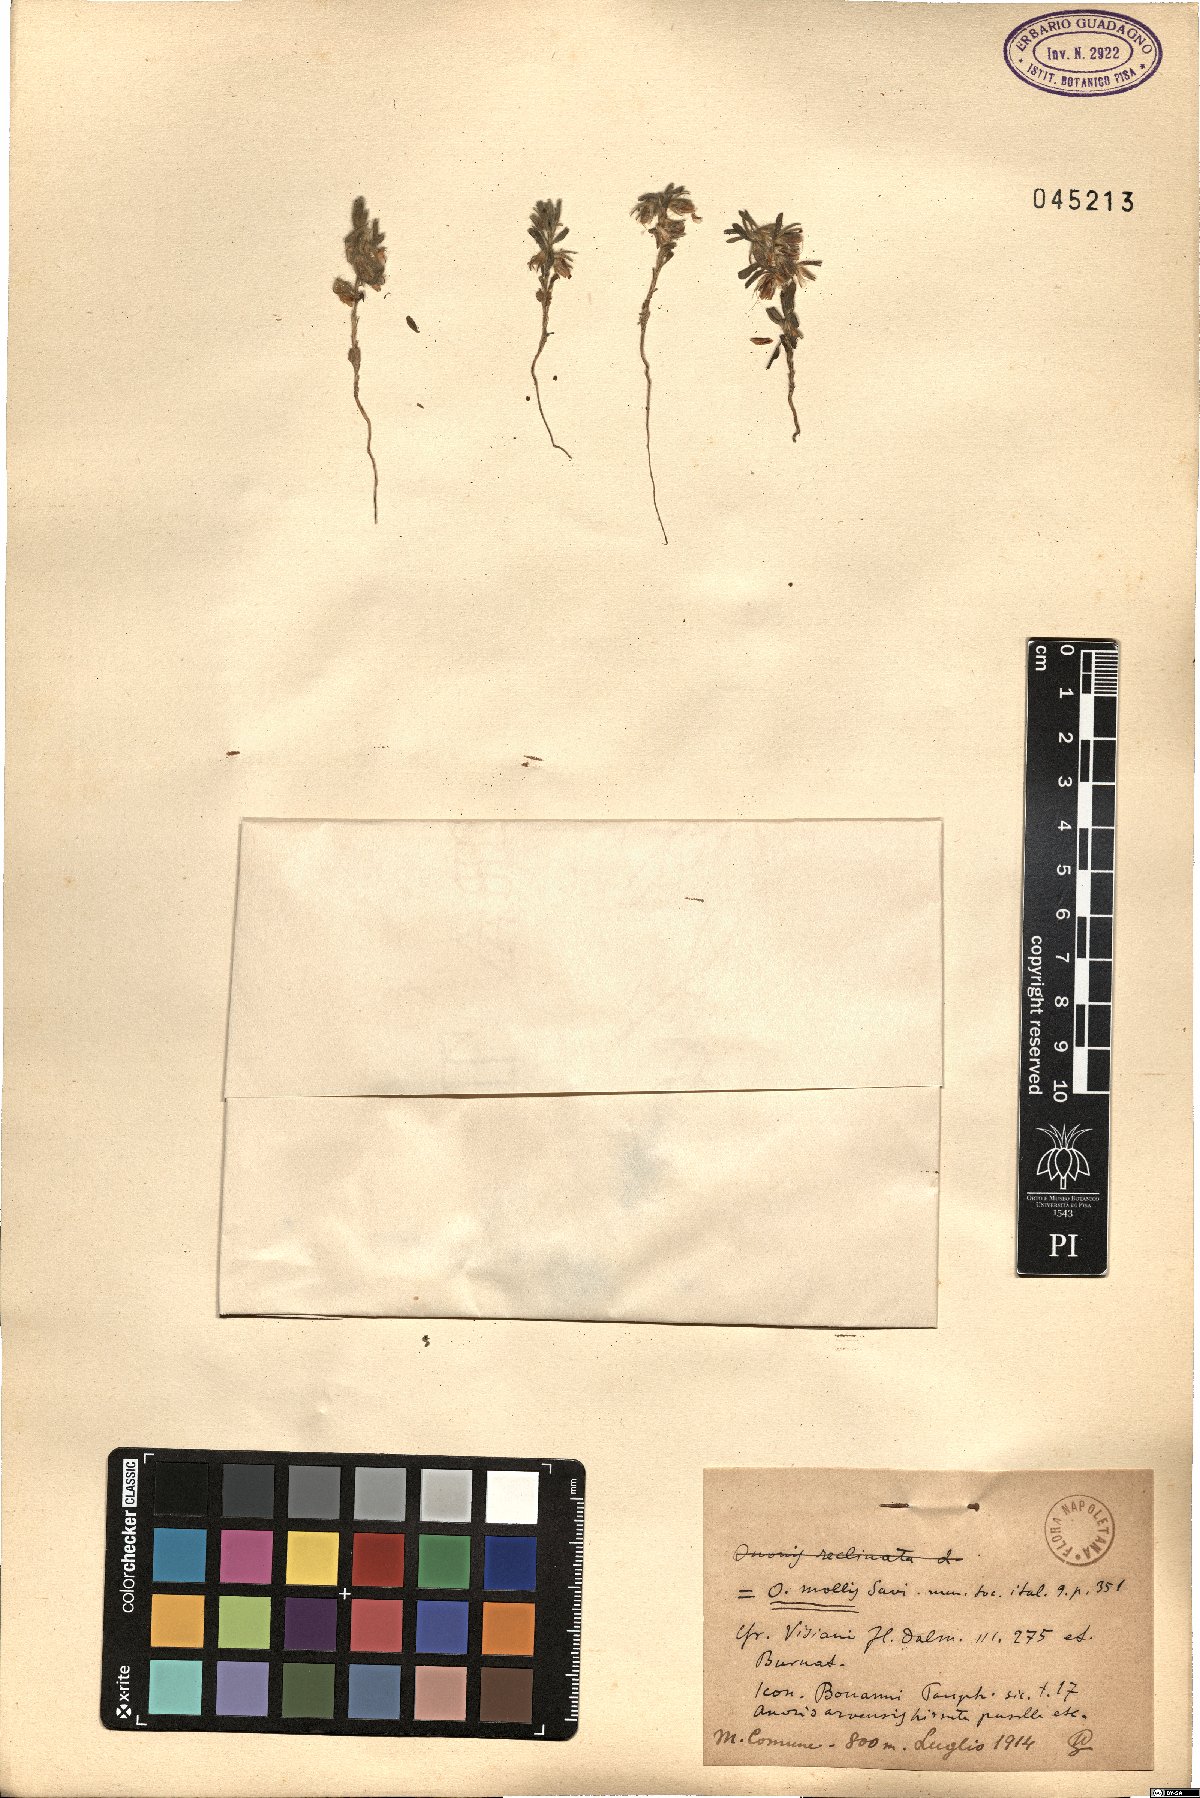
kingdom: Plantae
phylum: Tracheophyta
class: Magnoliopsida
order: Fabales
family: Fabaceae
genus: Ononis
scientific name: Ononis reclinata
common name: Small restharrow
